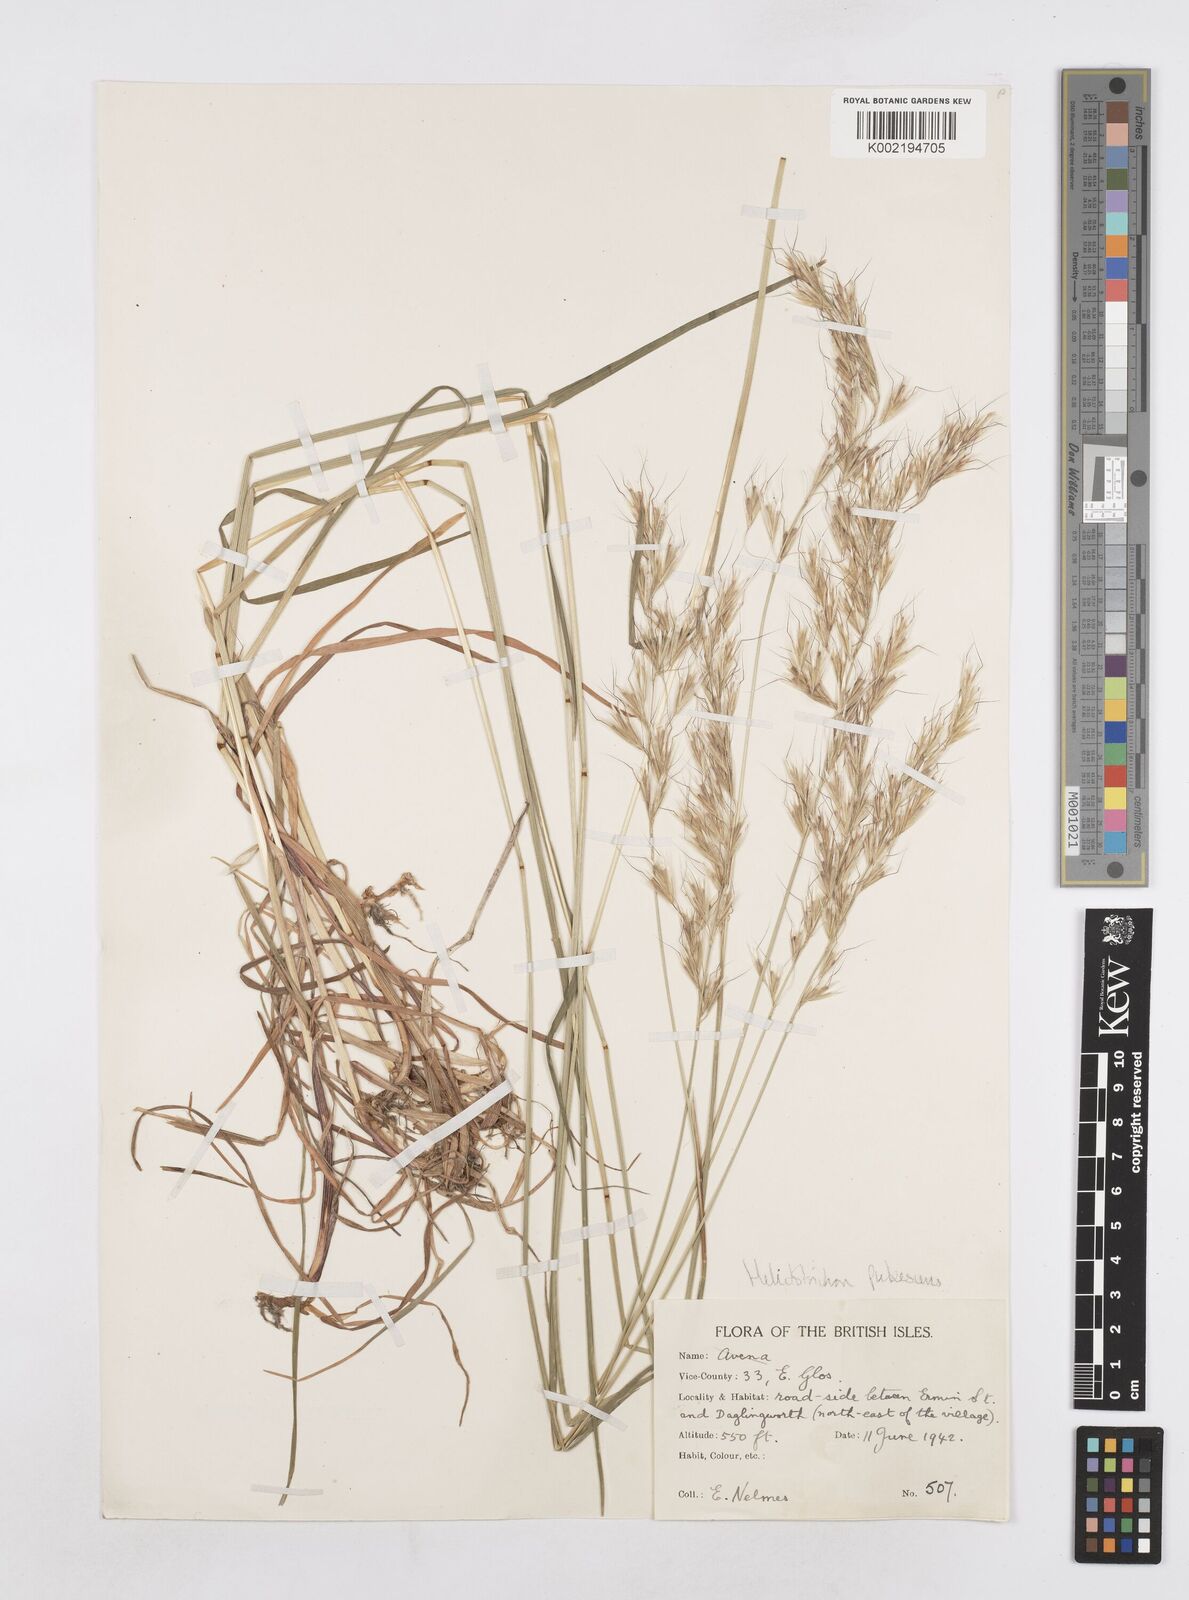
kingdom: Plantae
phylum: Tracheophyta
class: Liliopsida
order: Poales
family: Poaceae
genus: Avenula
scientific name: Avenula pubescens
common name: Downy alpine oatgrass
